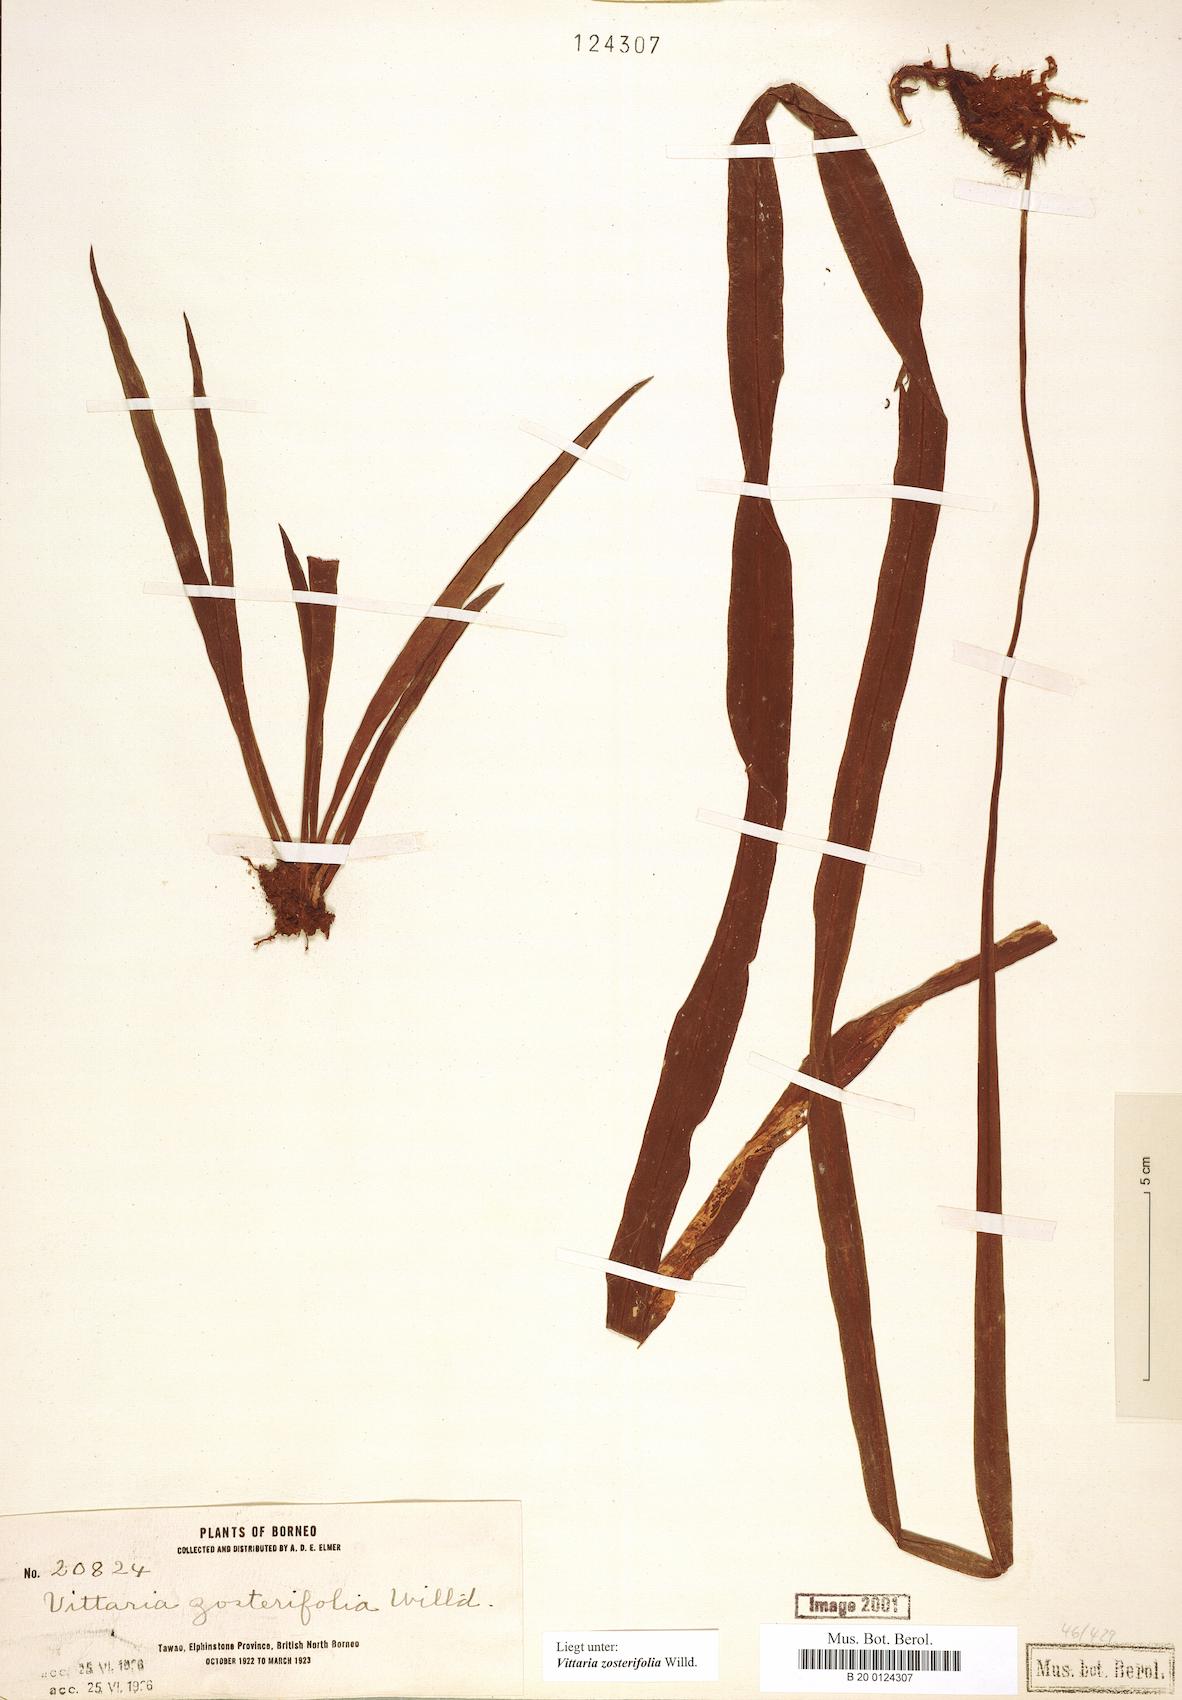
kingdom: Plantae
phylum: Tracheophyta
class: Polypodiopsida
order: Polypodiales
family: Pteridaceae
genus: Haplopteris
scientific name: Haplopteris zosterifolia
